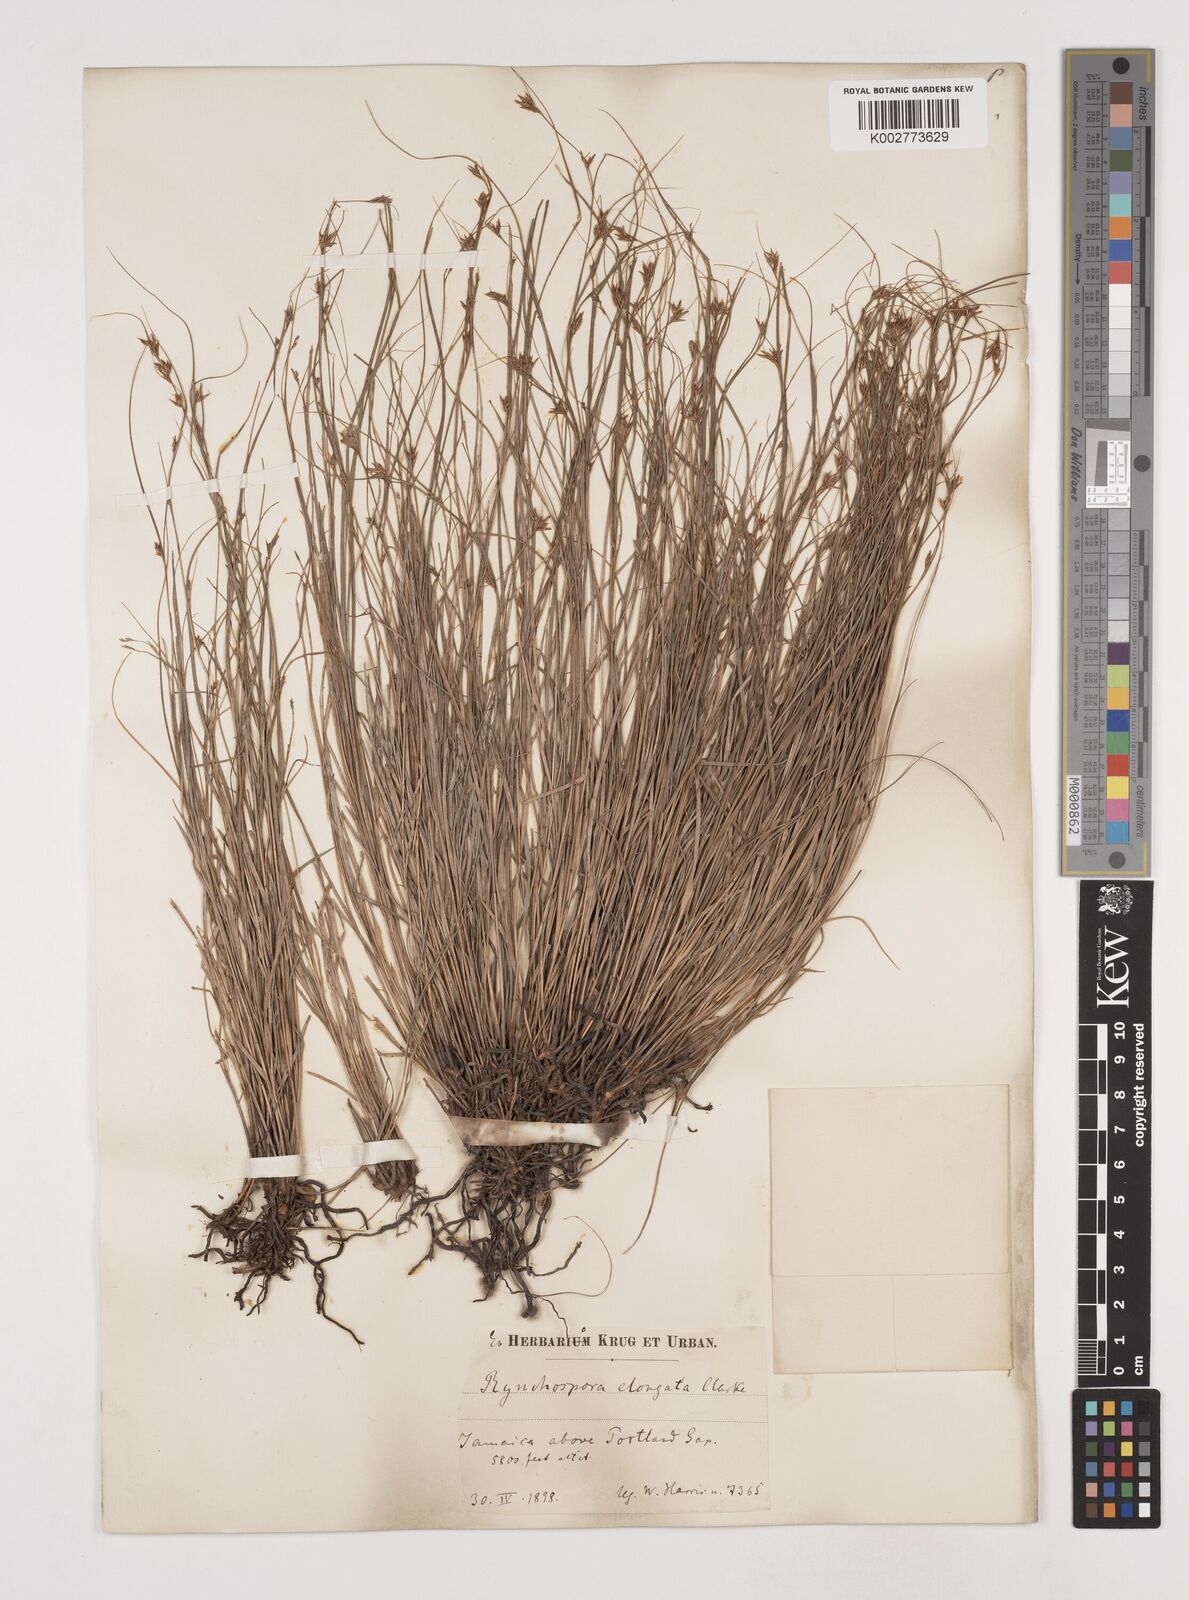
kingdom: Plantae
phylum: Tracheophyta
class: Liliopsida
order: Poales
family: Cyperaceae
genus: Rhynchospora
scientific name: Rhynchospora biflora
